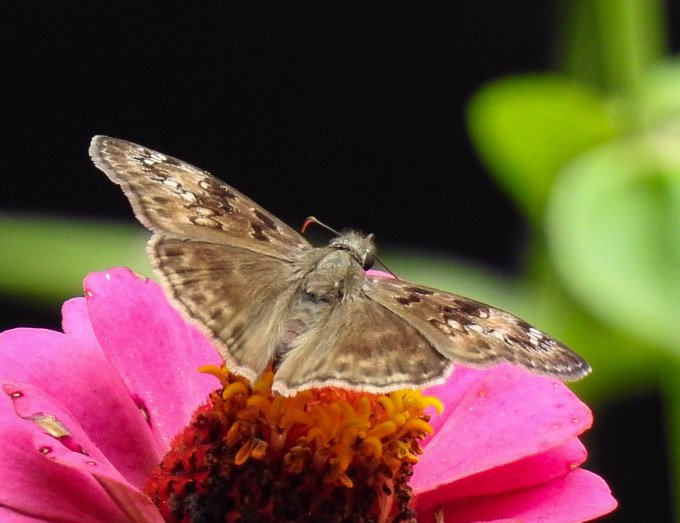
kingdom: Animalia
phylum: Arthropoda
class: Insecta
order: Lepidoptera
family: Hesperiidae
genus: Gesta
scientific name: Gesta
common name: Horace's Duskywing
